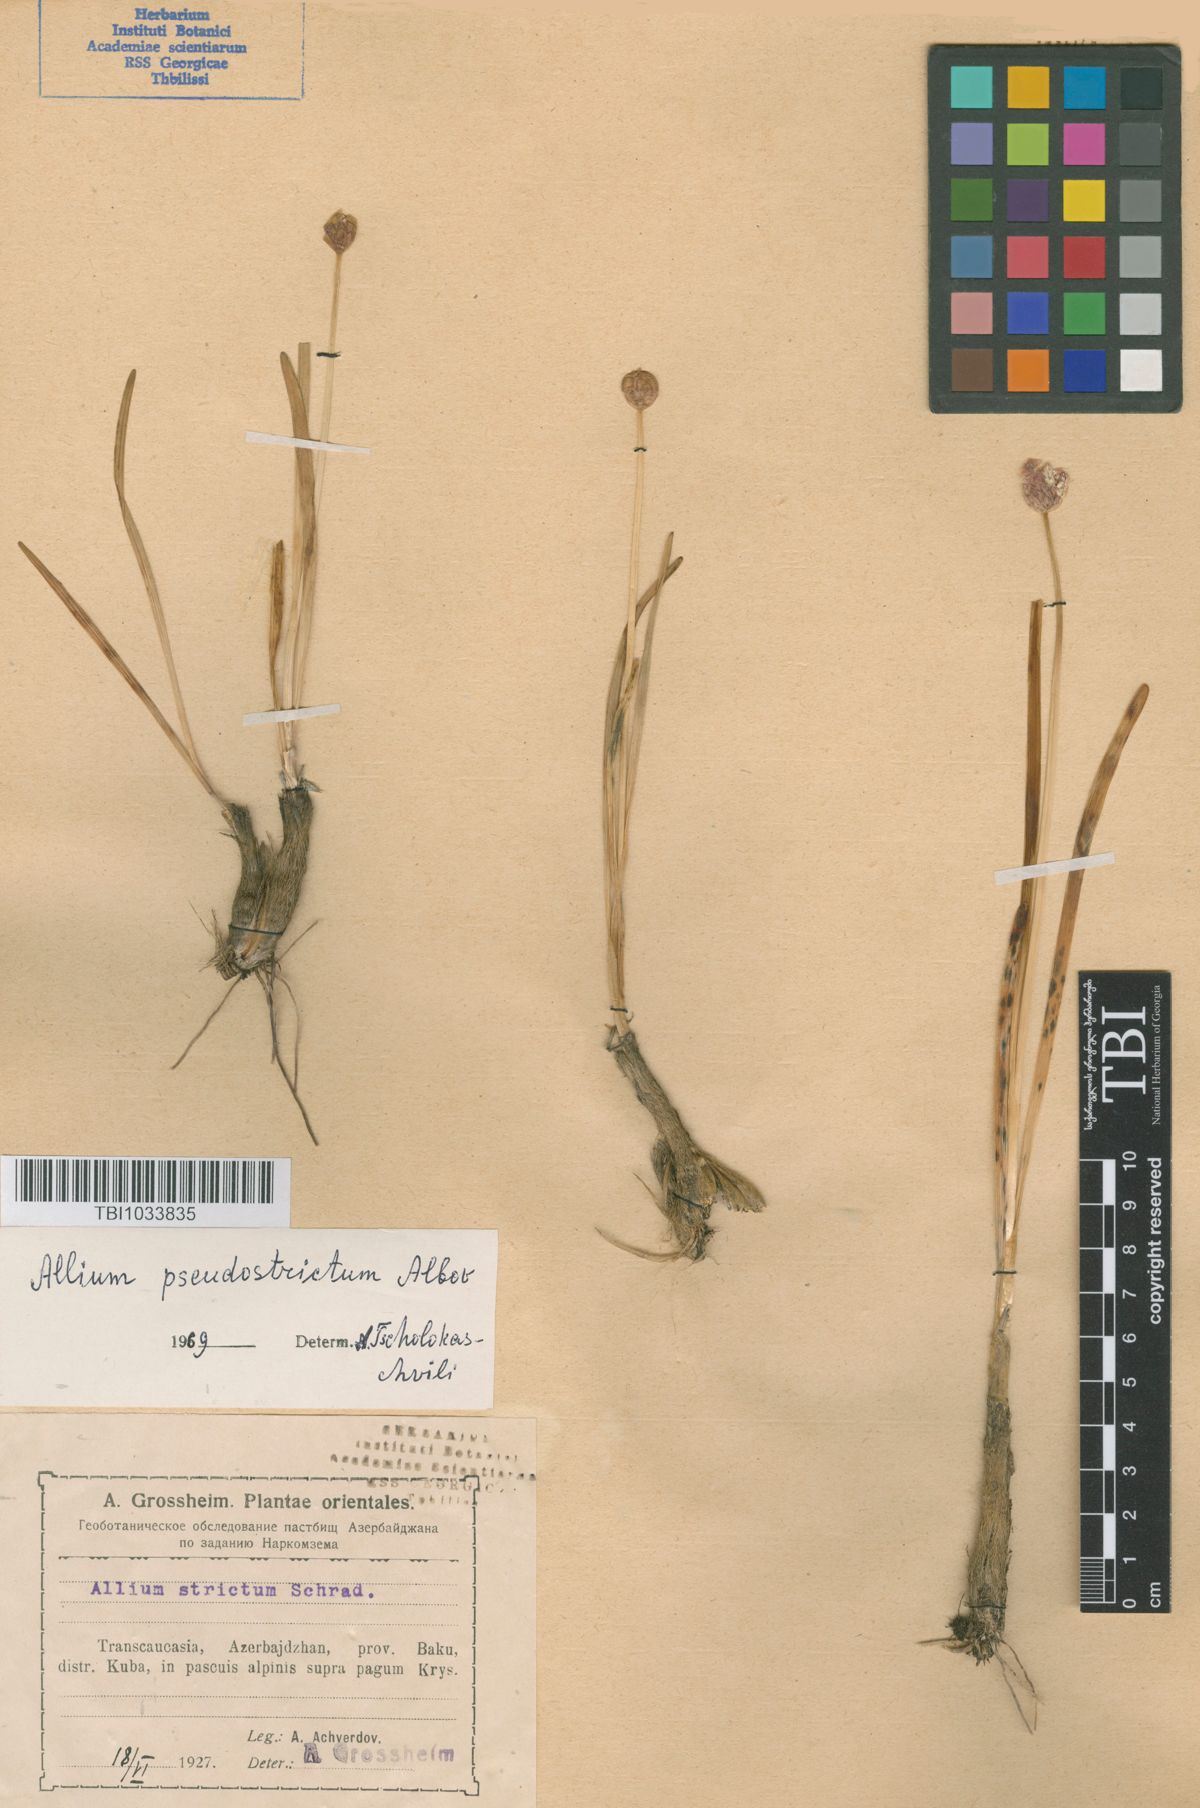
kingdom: Plantae
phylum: Tracheophyta
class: Liliopsida
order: Asparagales
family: Amaryllidaceae
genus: Allium
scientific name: Allium pseudostrictum
